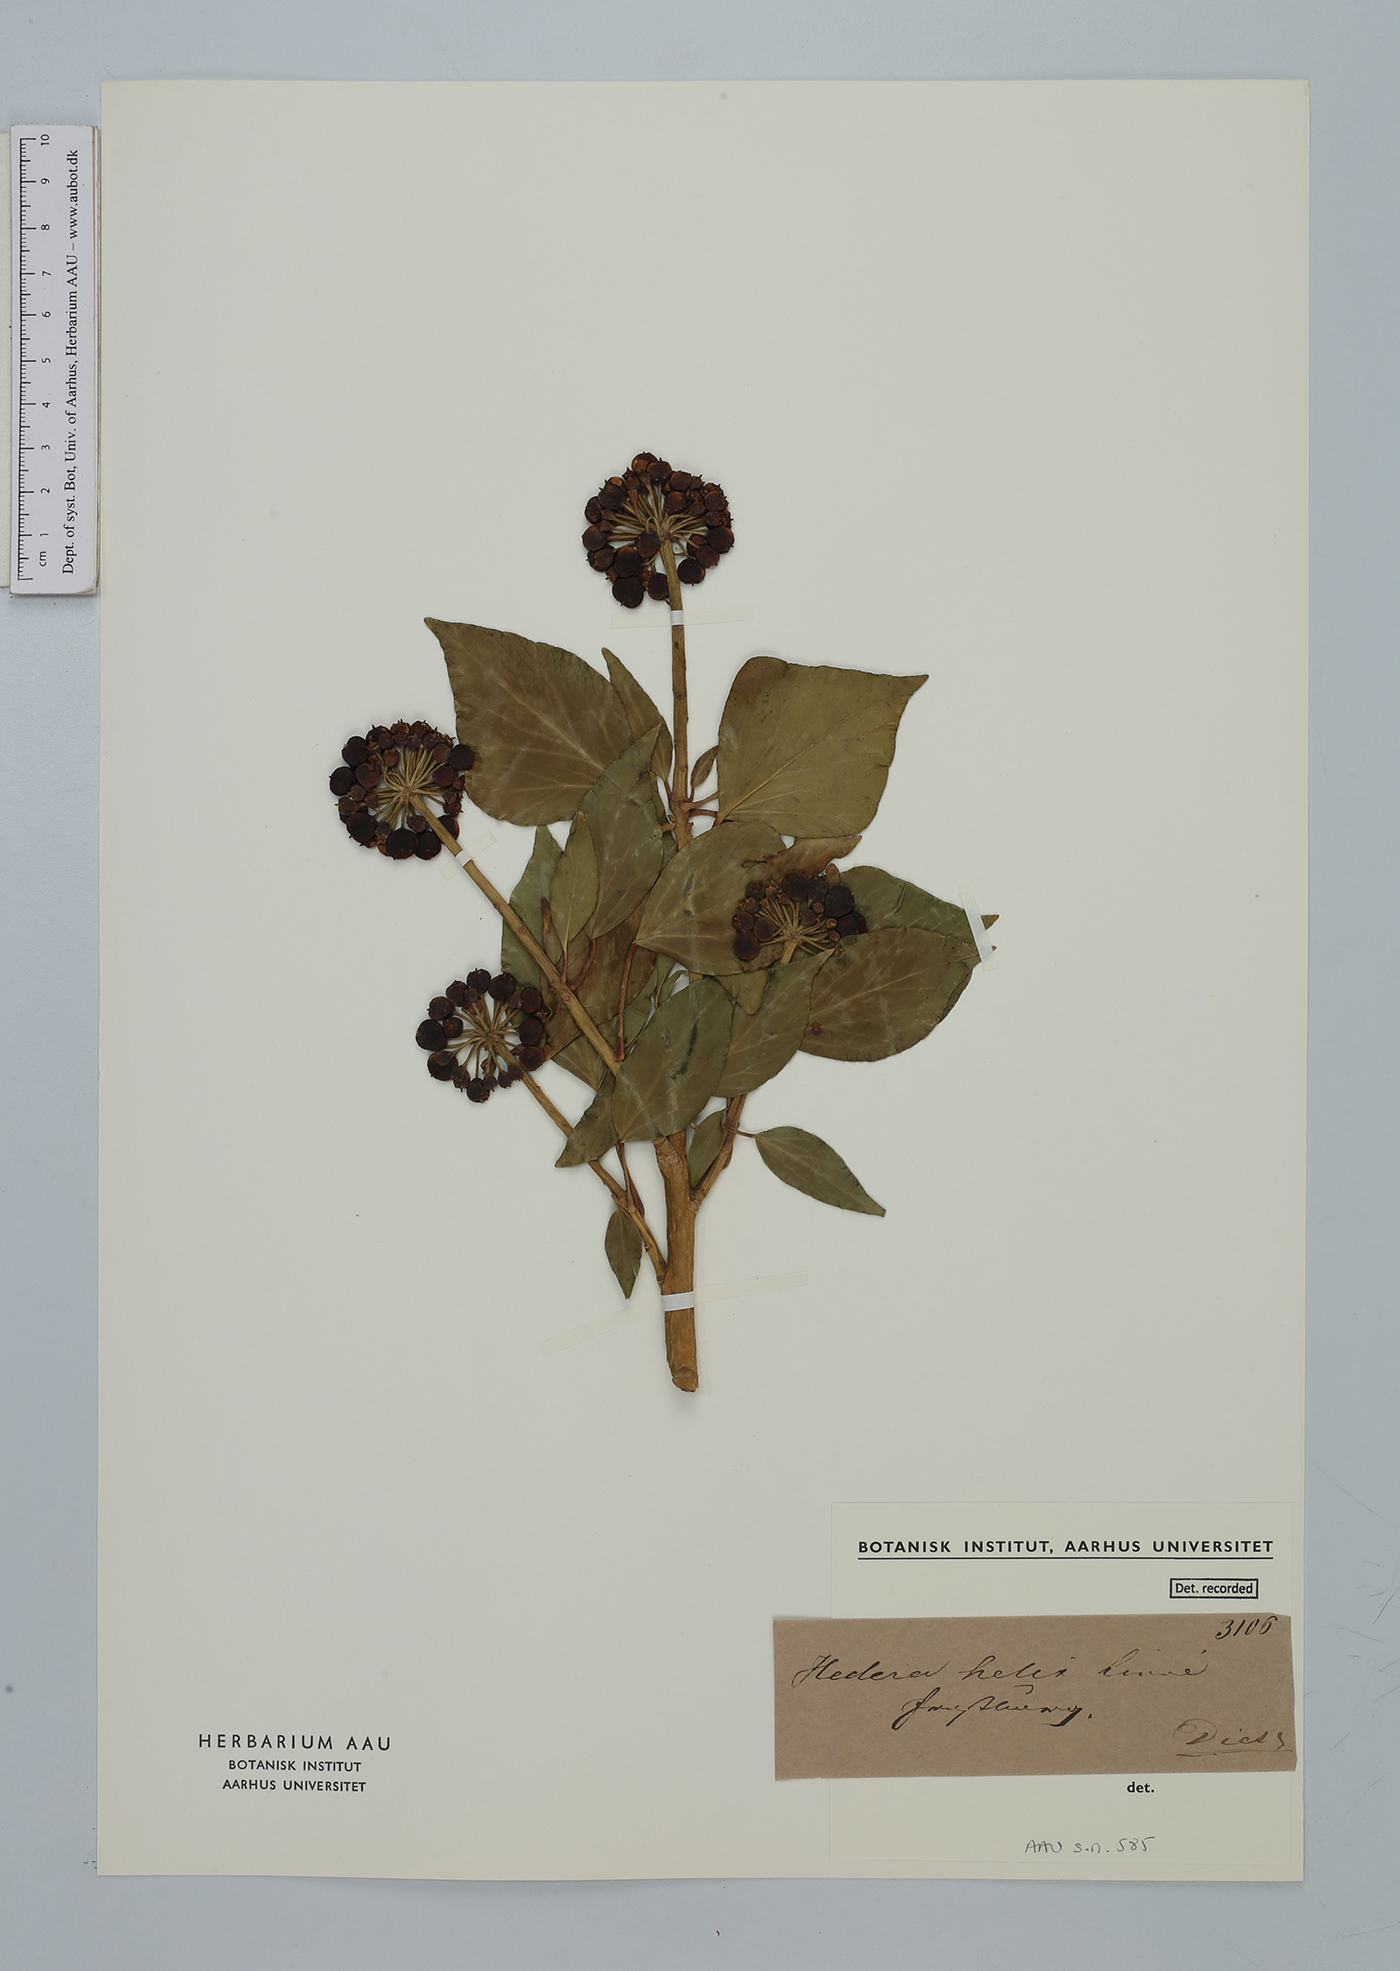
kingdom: Plantae
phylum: Tracheophyta
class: Magnoliopsida
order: Apiales
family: Araliaceae
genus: Hedera
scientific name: Hedera helix
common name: Ivy
